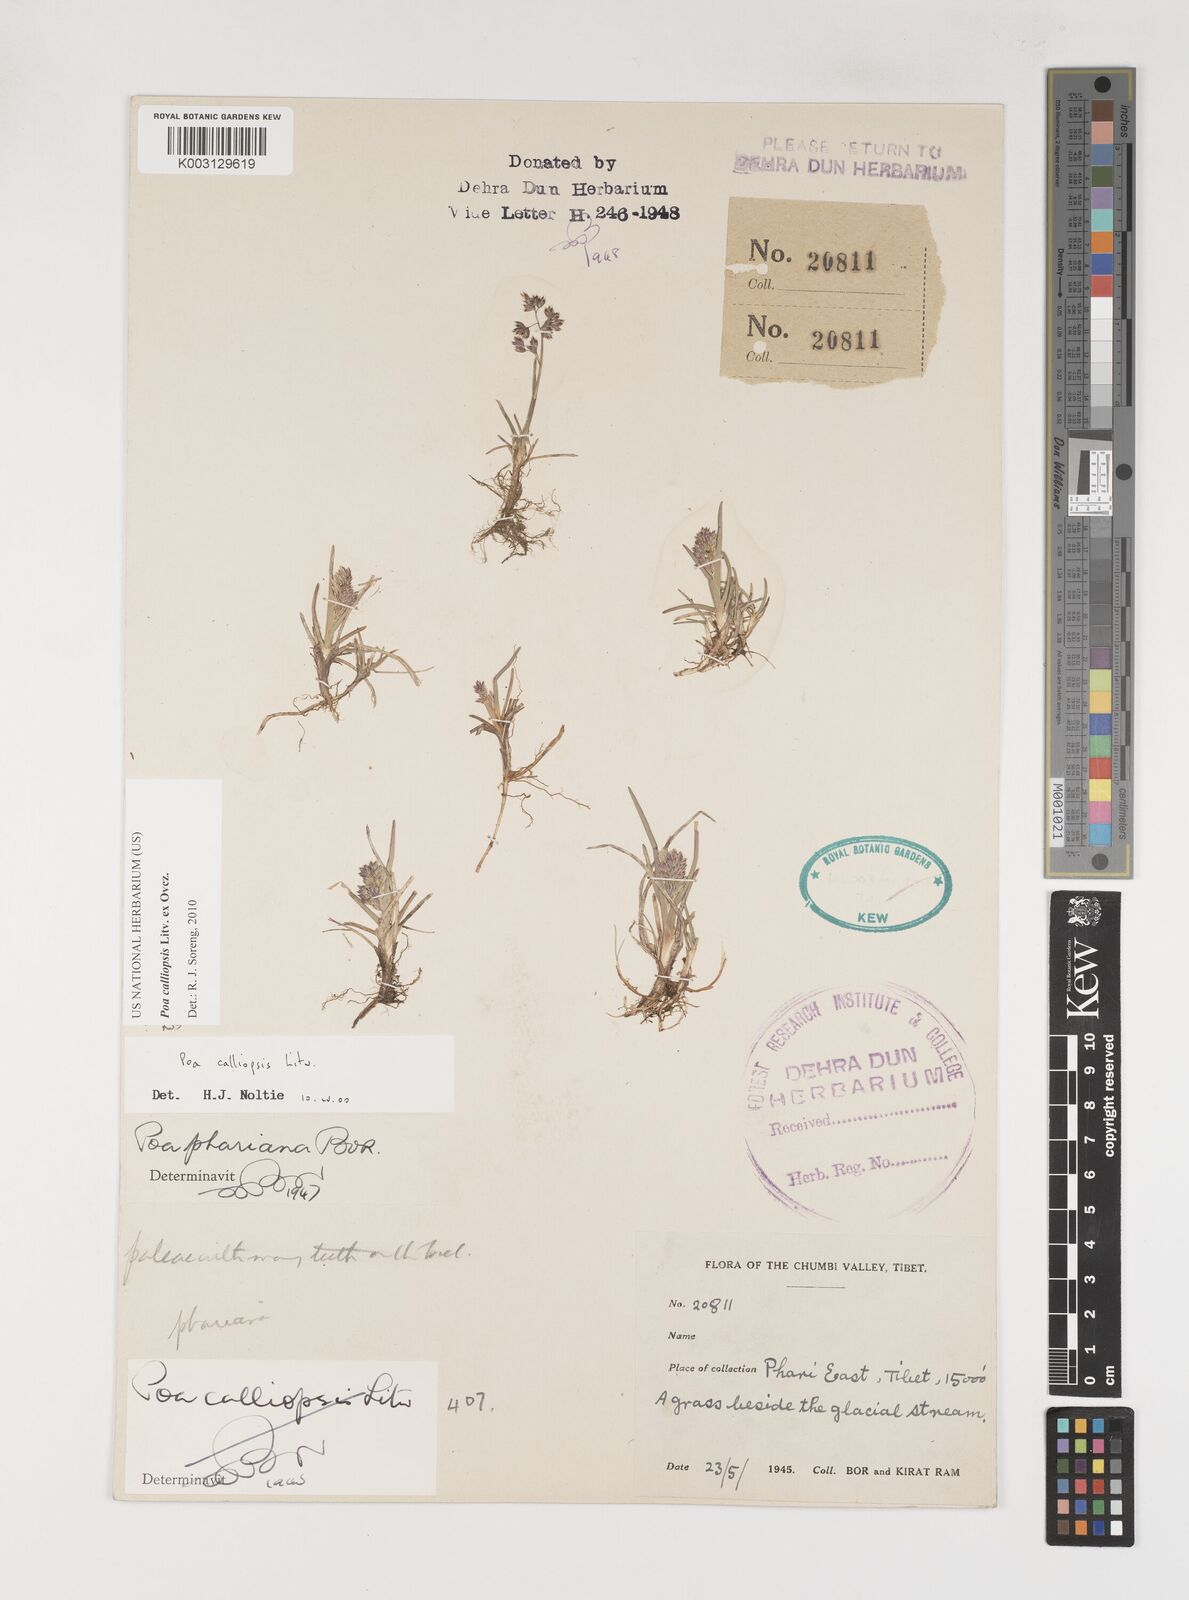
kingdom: Plantae
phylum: Tracheophyta
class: Liliopsida
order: Poales
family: Poaceae
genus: Poa
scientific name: Poa calliopsis
